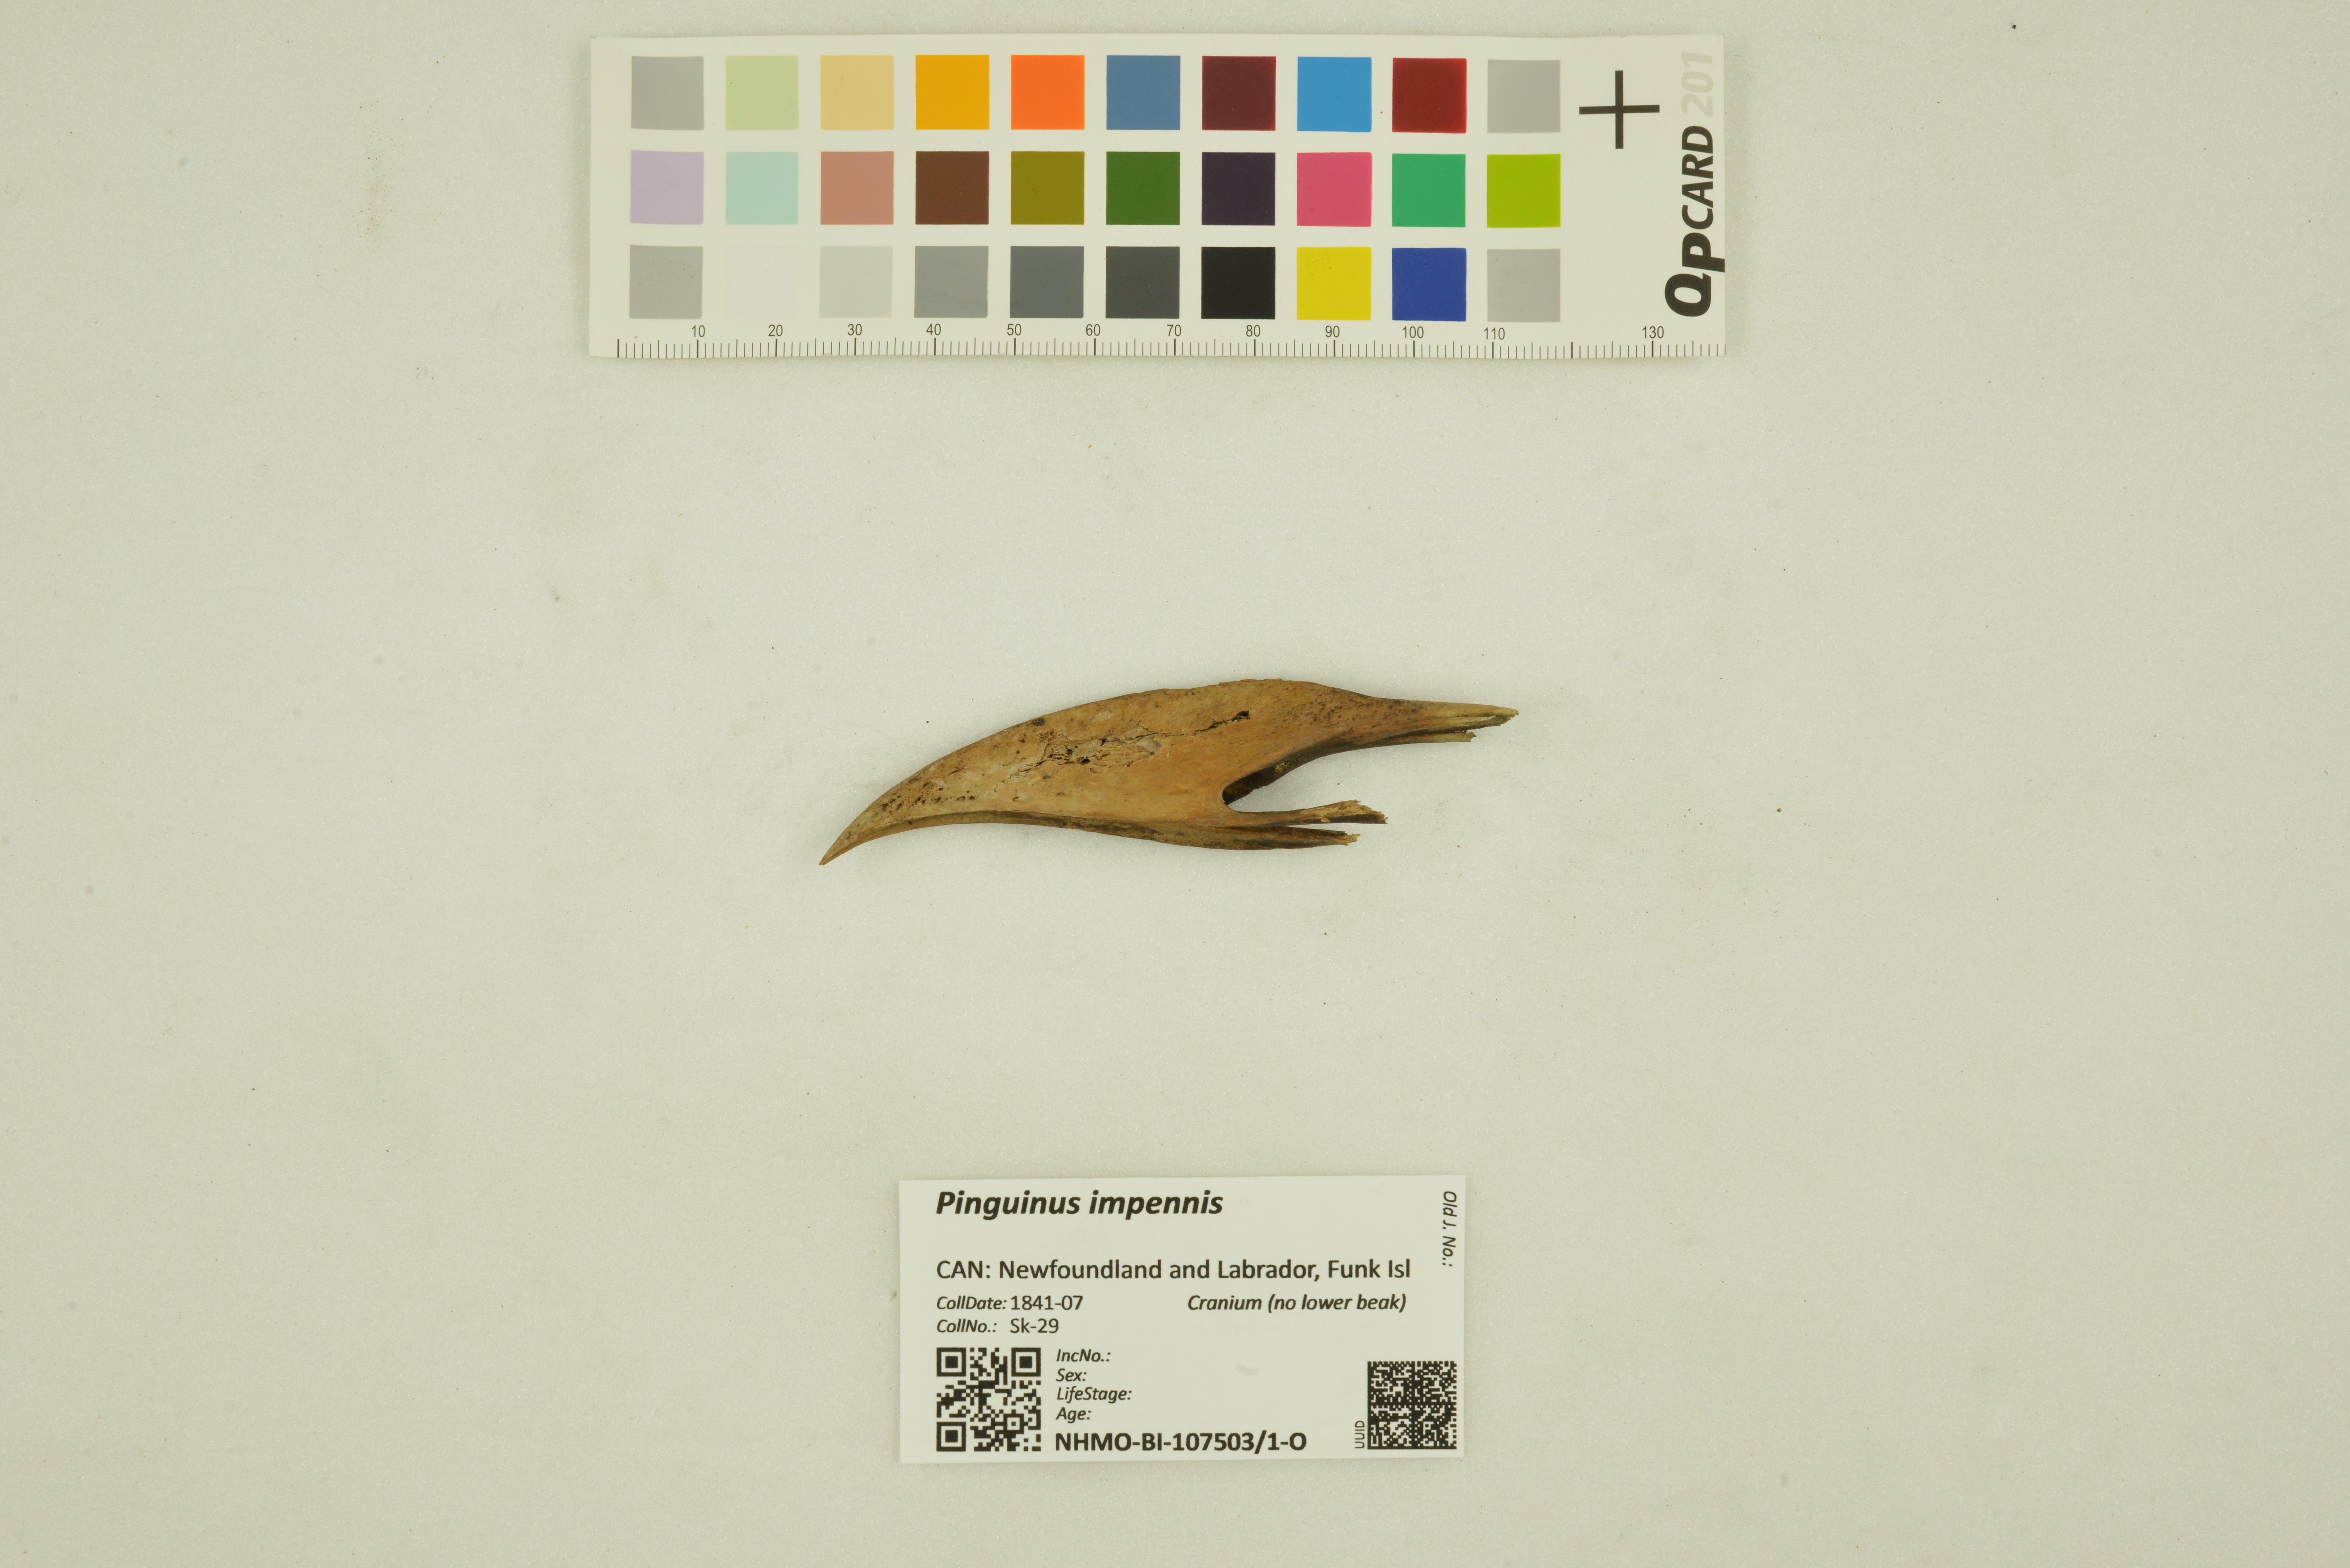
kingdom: Animalia
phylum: Chordata
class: Aves
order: Charadriiformes
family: Alcidae
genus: Pinguinus
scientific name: Pinguinus impennis
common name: Great auk
